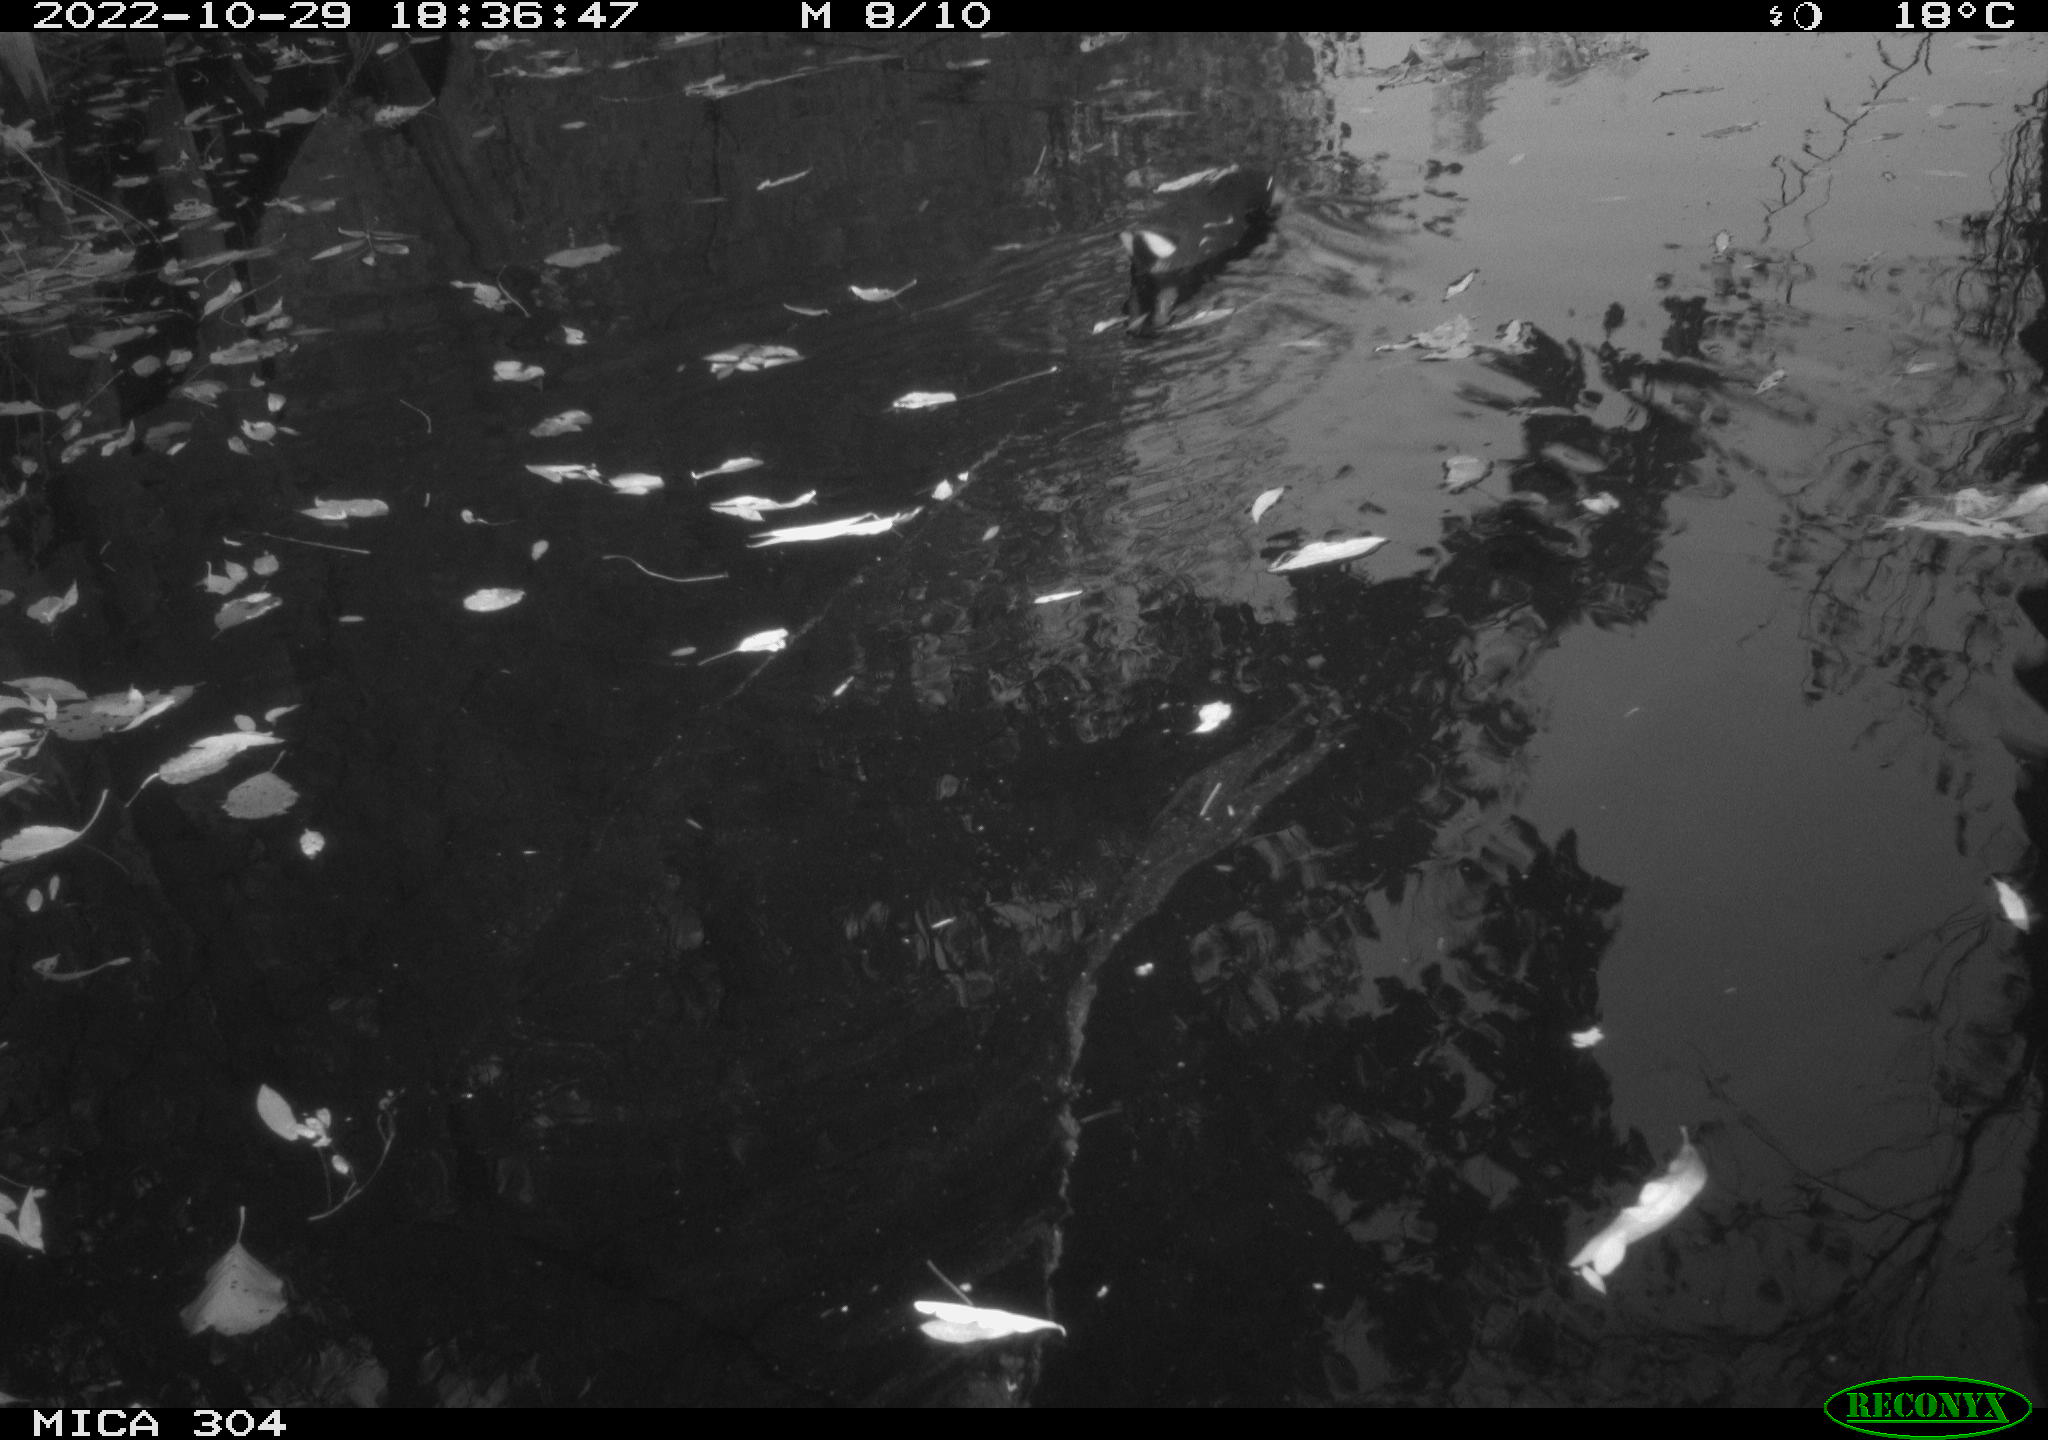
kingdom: Animalia
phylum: Chordata
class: Aves
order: Gruiformes
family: Rallidae
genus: Gallinula
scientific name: Gallinula chloropus
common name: Common moorhen
